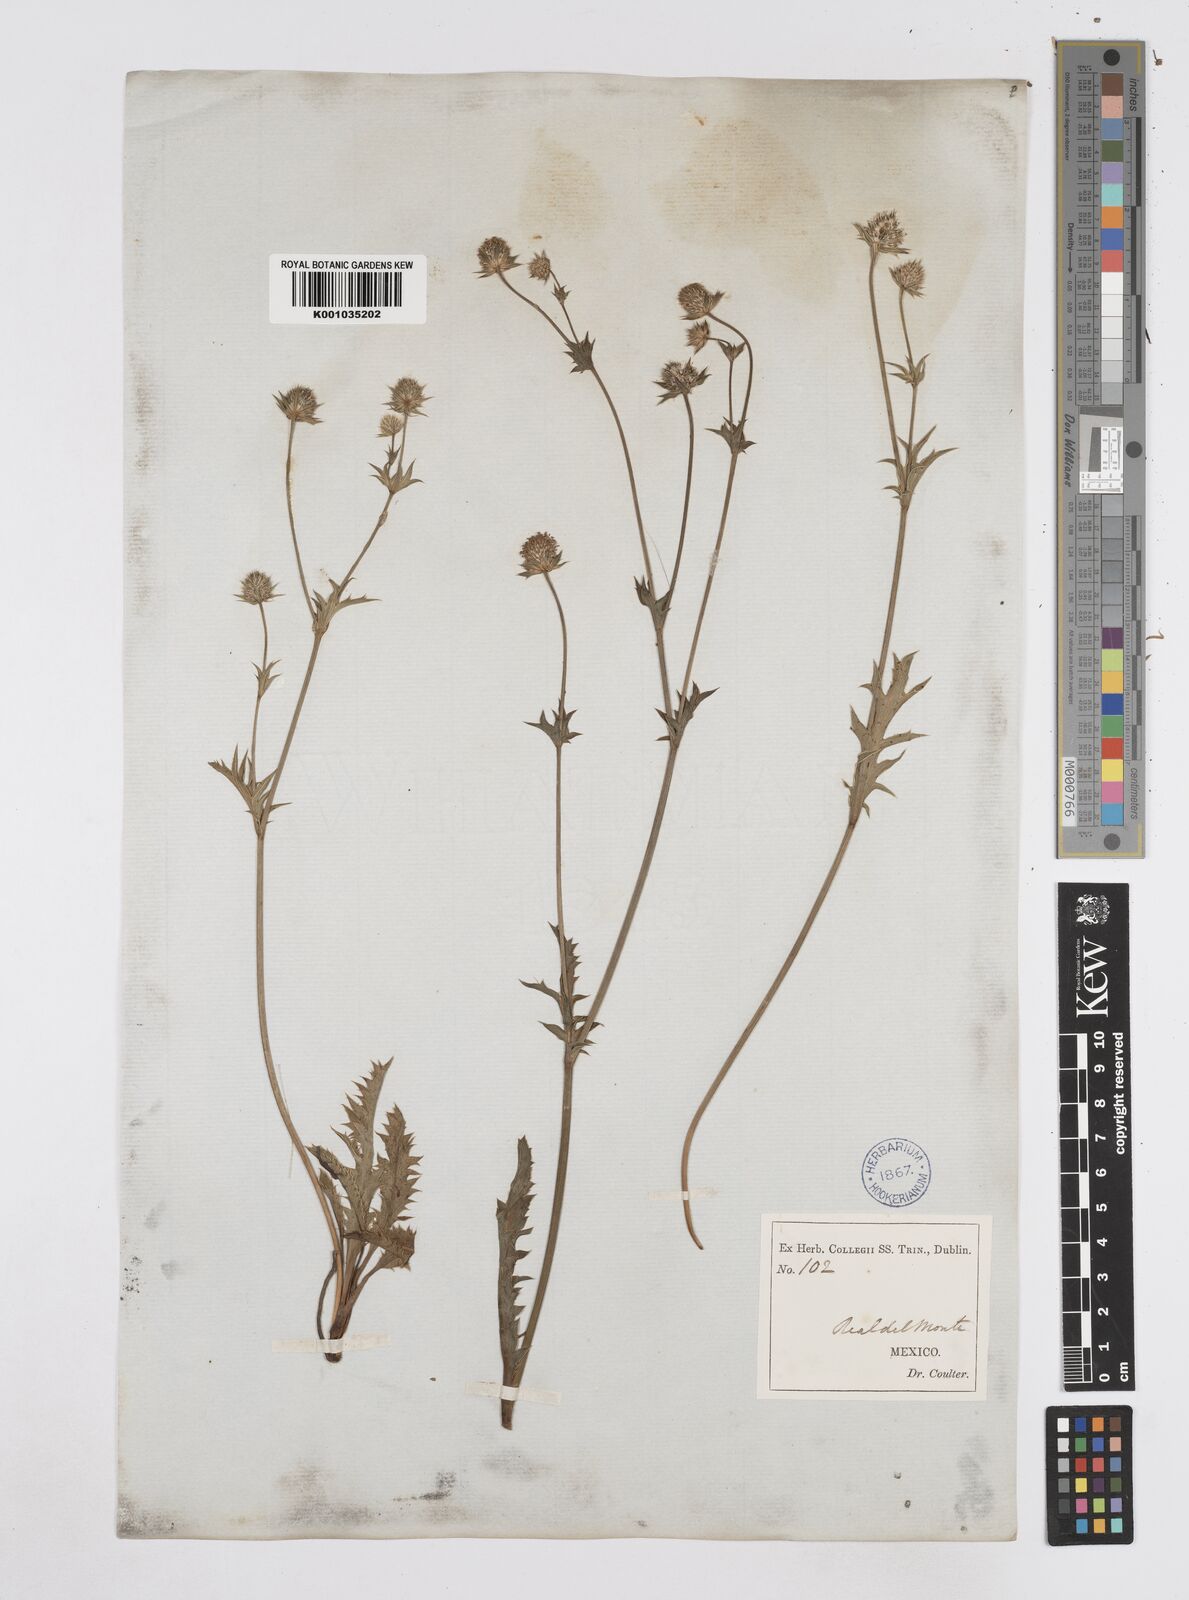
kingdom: Plantae
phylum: Tracheophyta
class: Magnoliopsida
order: Apiales
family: Apiaceae
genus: Eryngium
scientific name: Eryngium serratum
